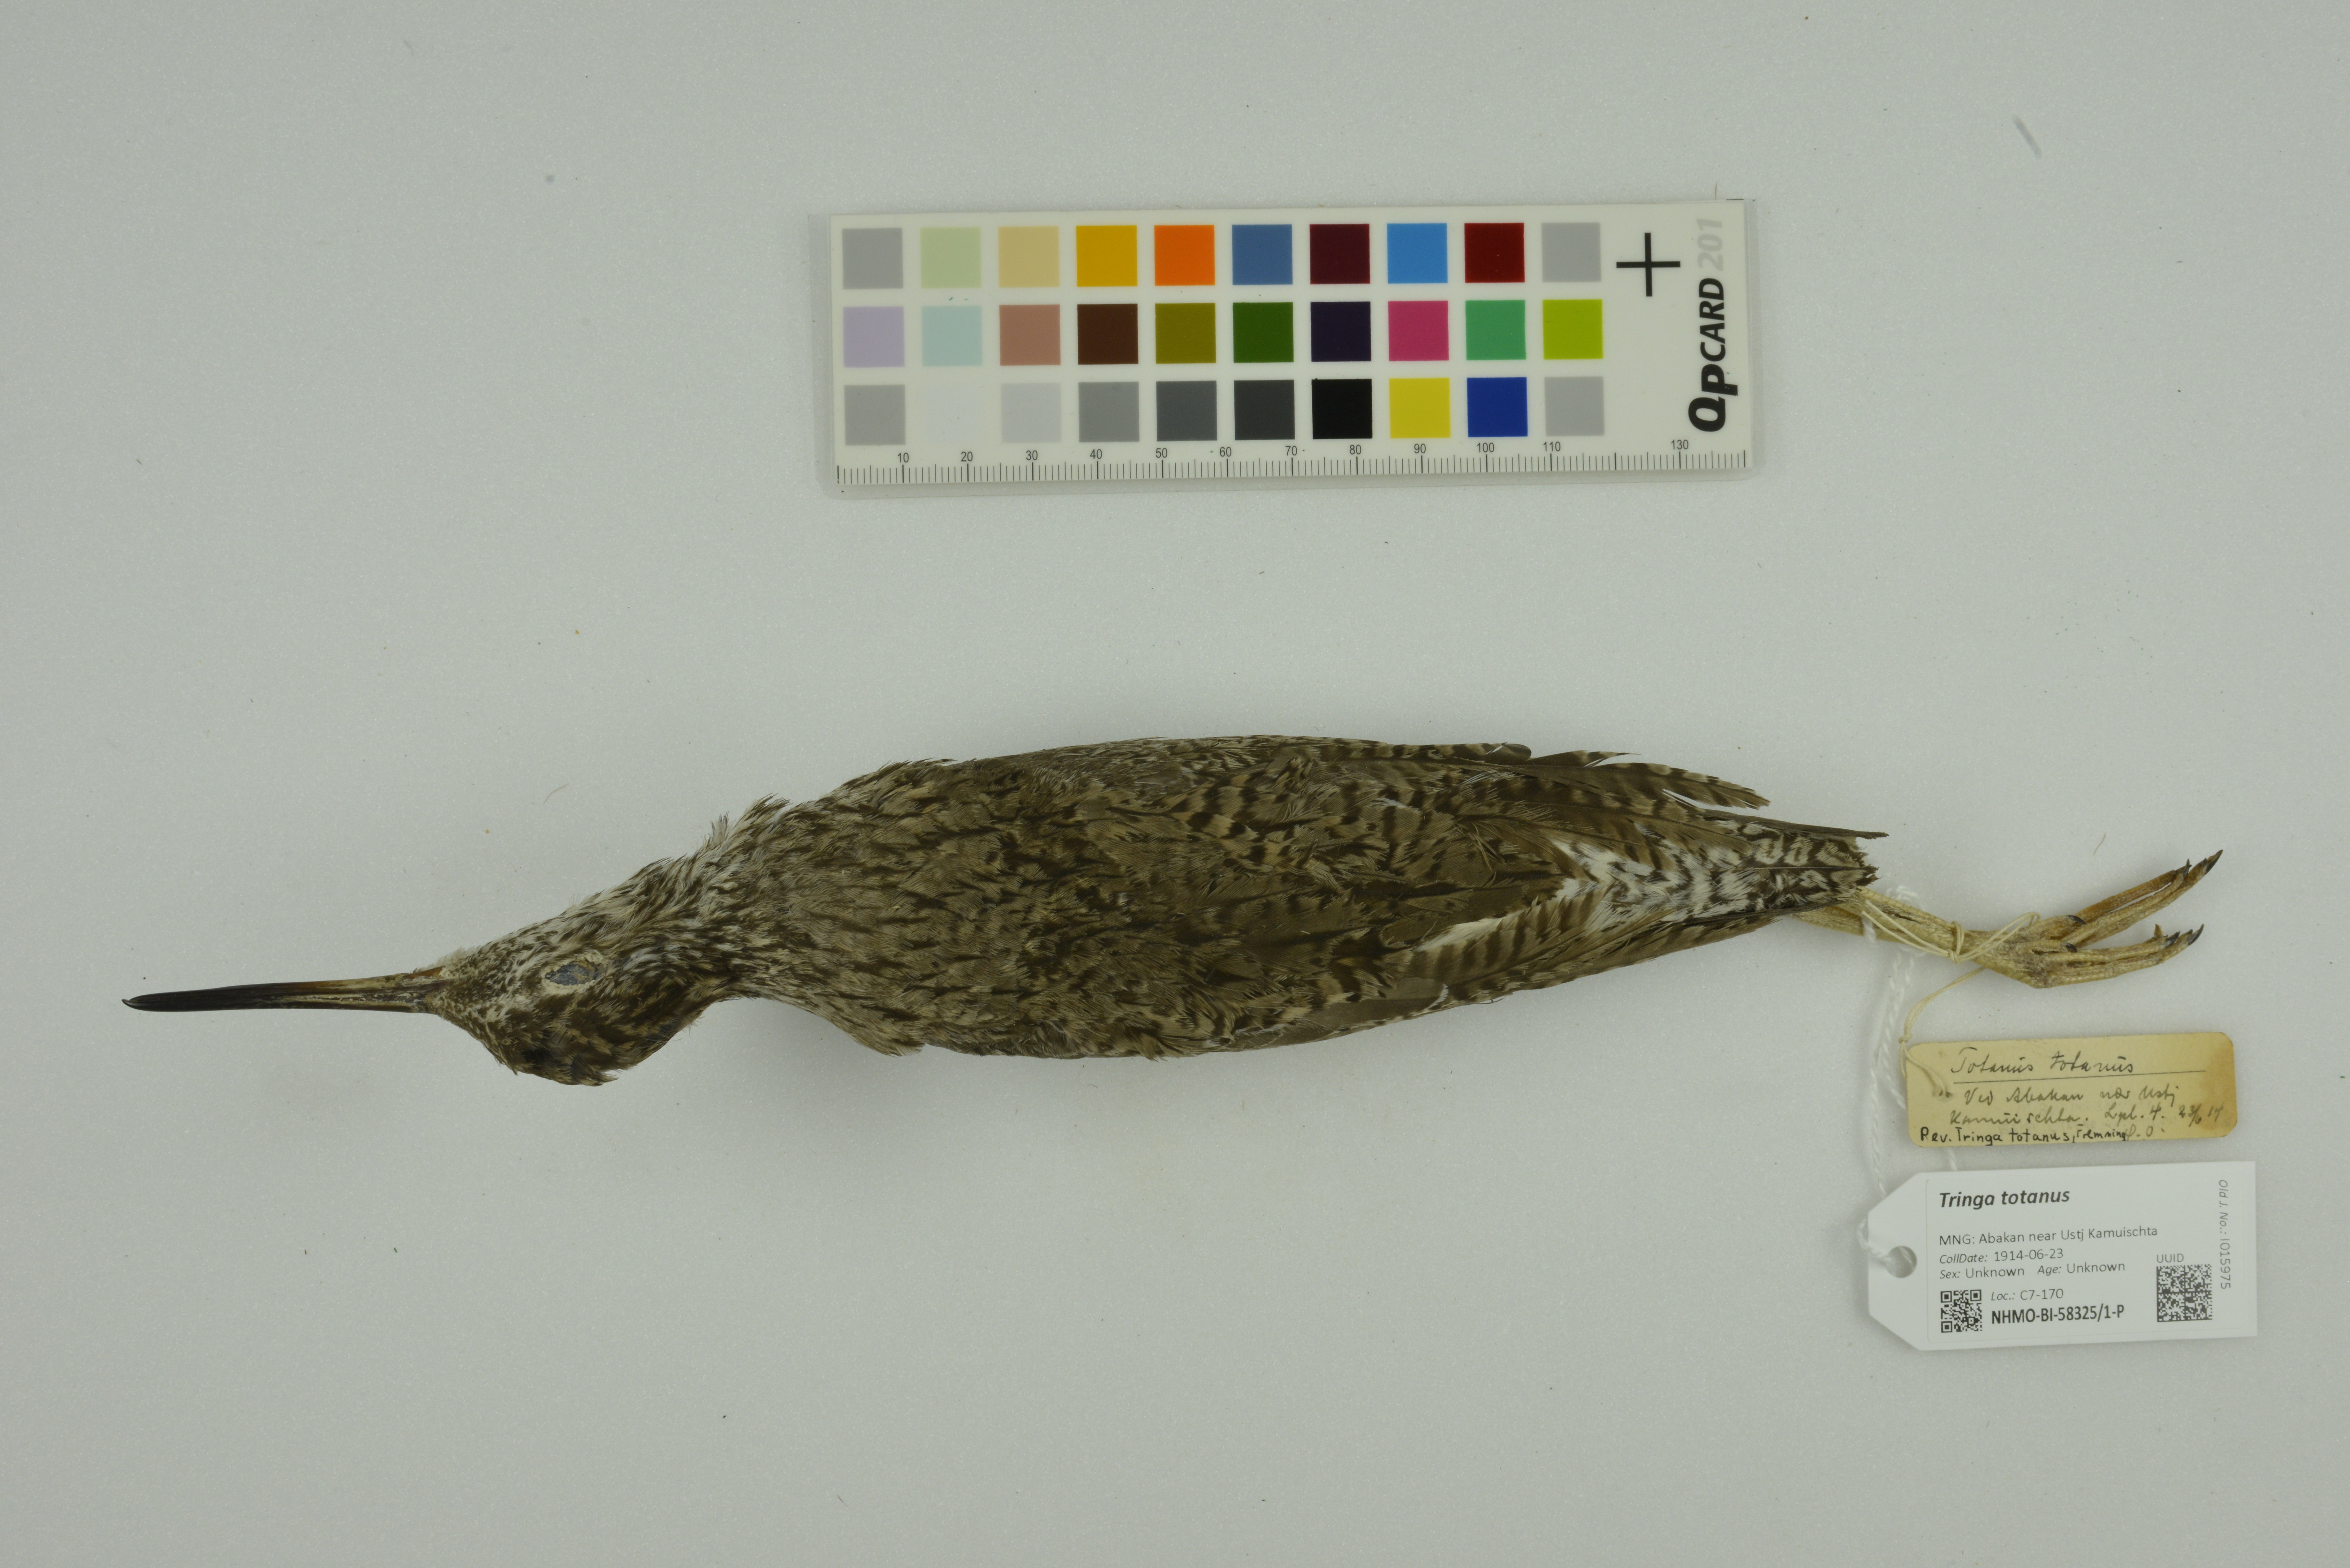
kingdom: Animalia
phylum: Chordata
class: Aves
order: Charadriiformes
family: Scolopacidae
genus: Tringa
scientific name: Tringa totanus
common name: Common redshank
